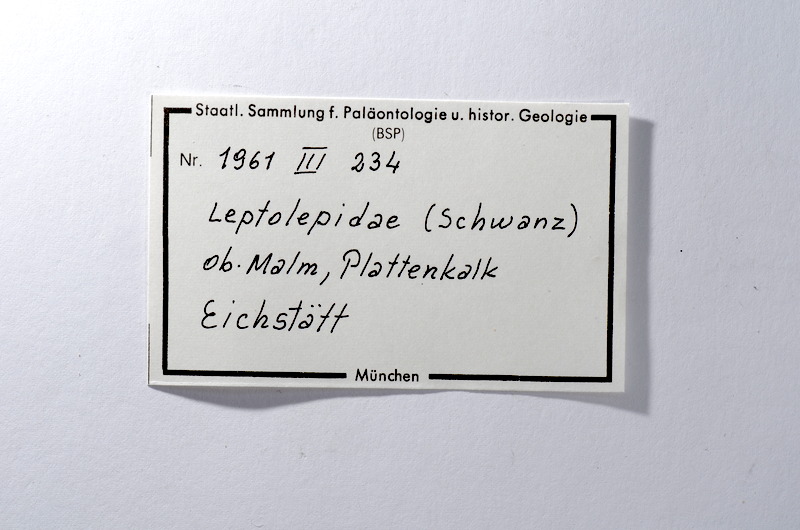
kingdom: Animalia
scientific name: Animalia
